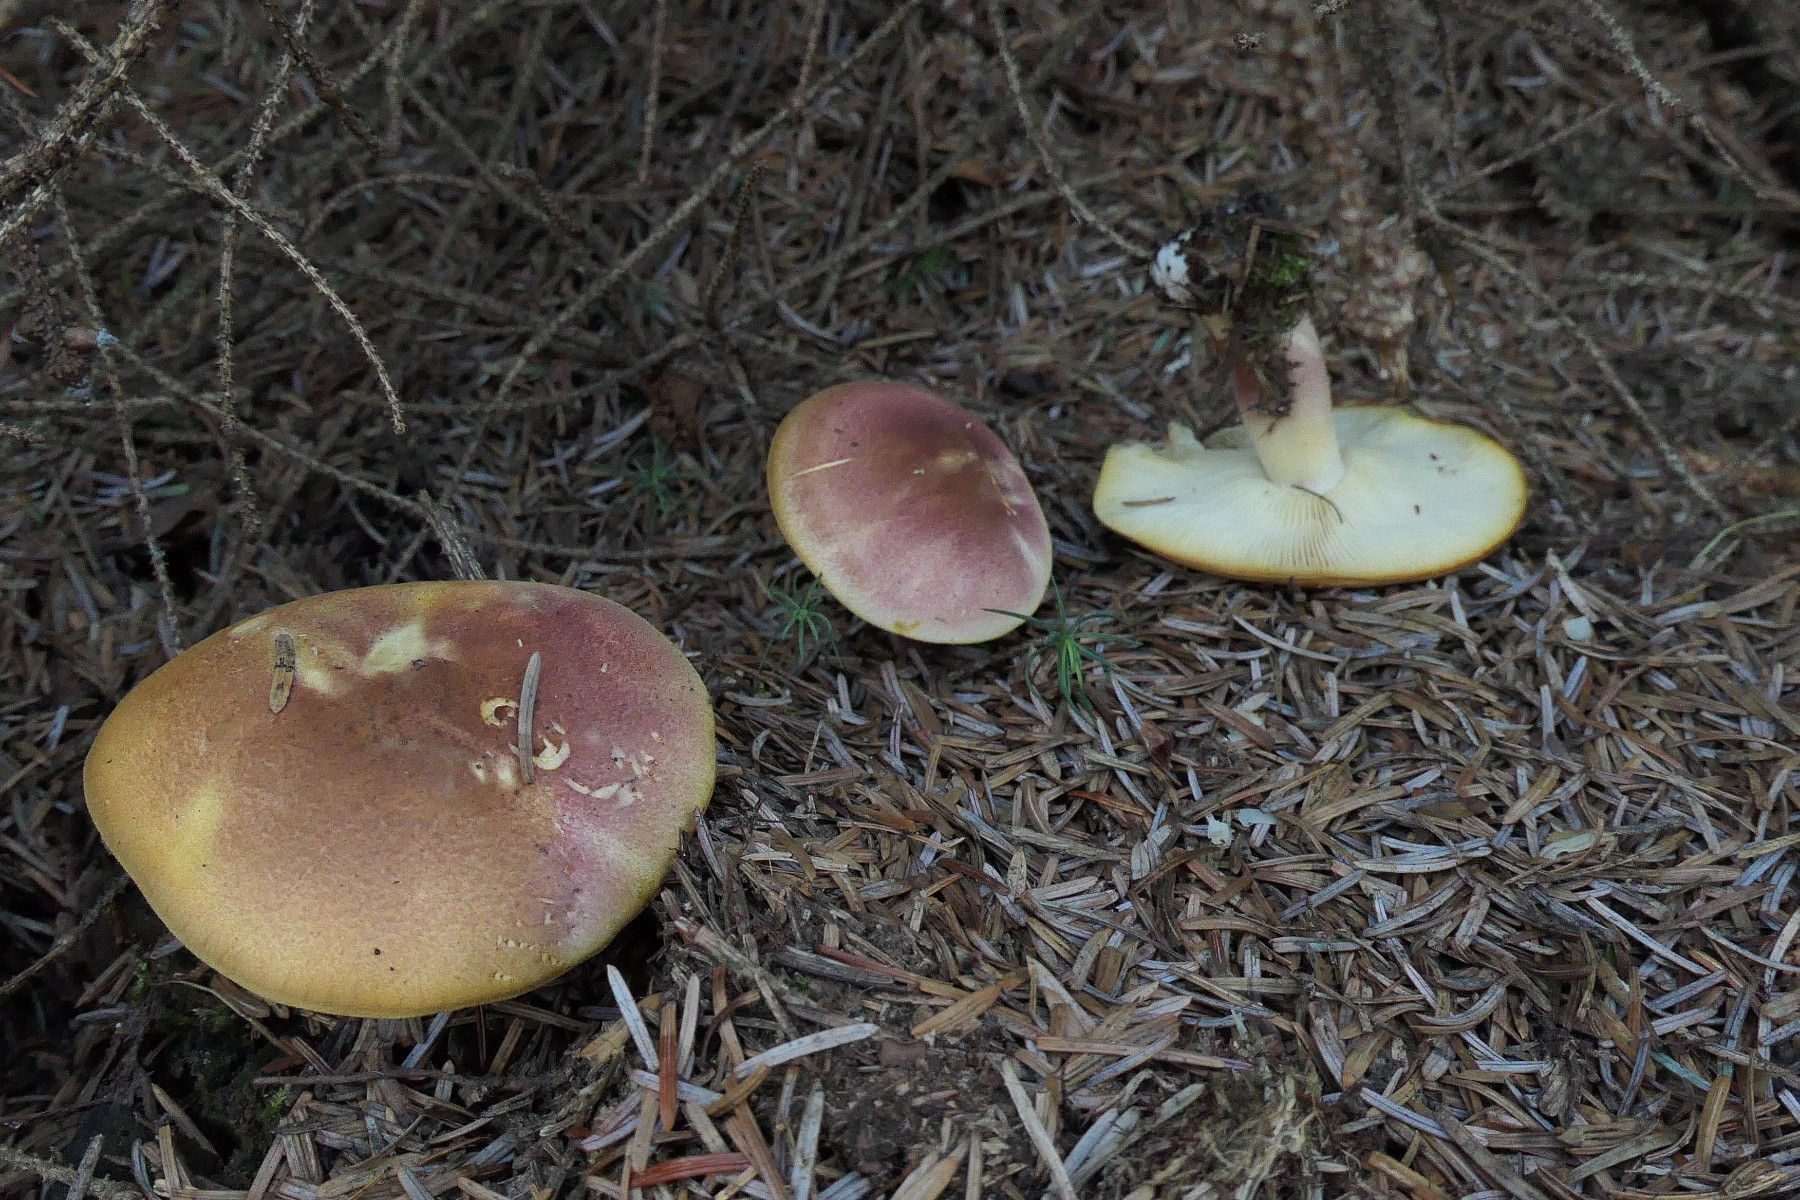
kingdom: Fungi
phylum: Basidiomycota
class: Agaricomycetes
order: Agaricales
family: Tricholomataceae
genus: Tricholomopsis
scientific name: Tricholomopsis rutilans
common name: purpur-væbnerhat
